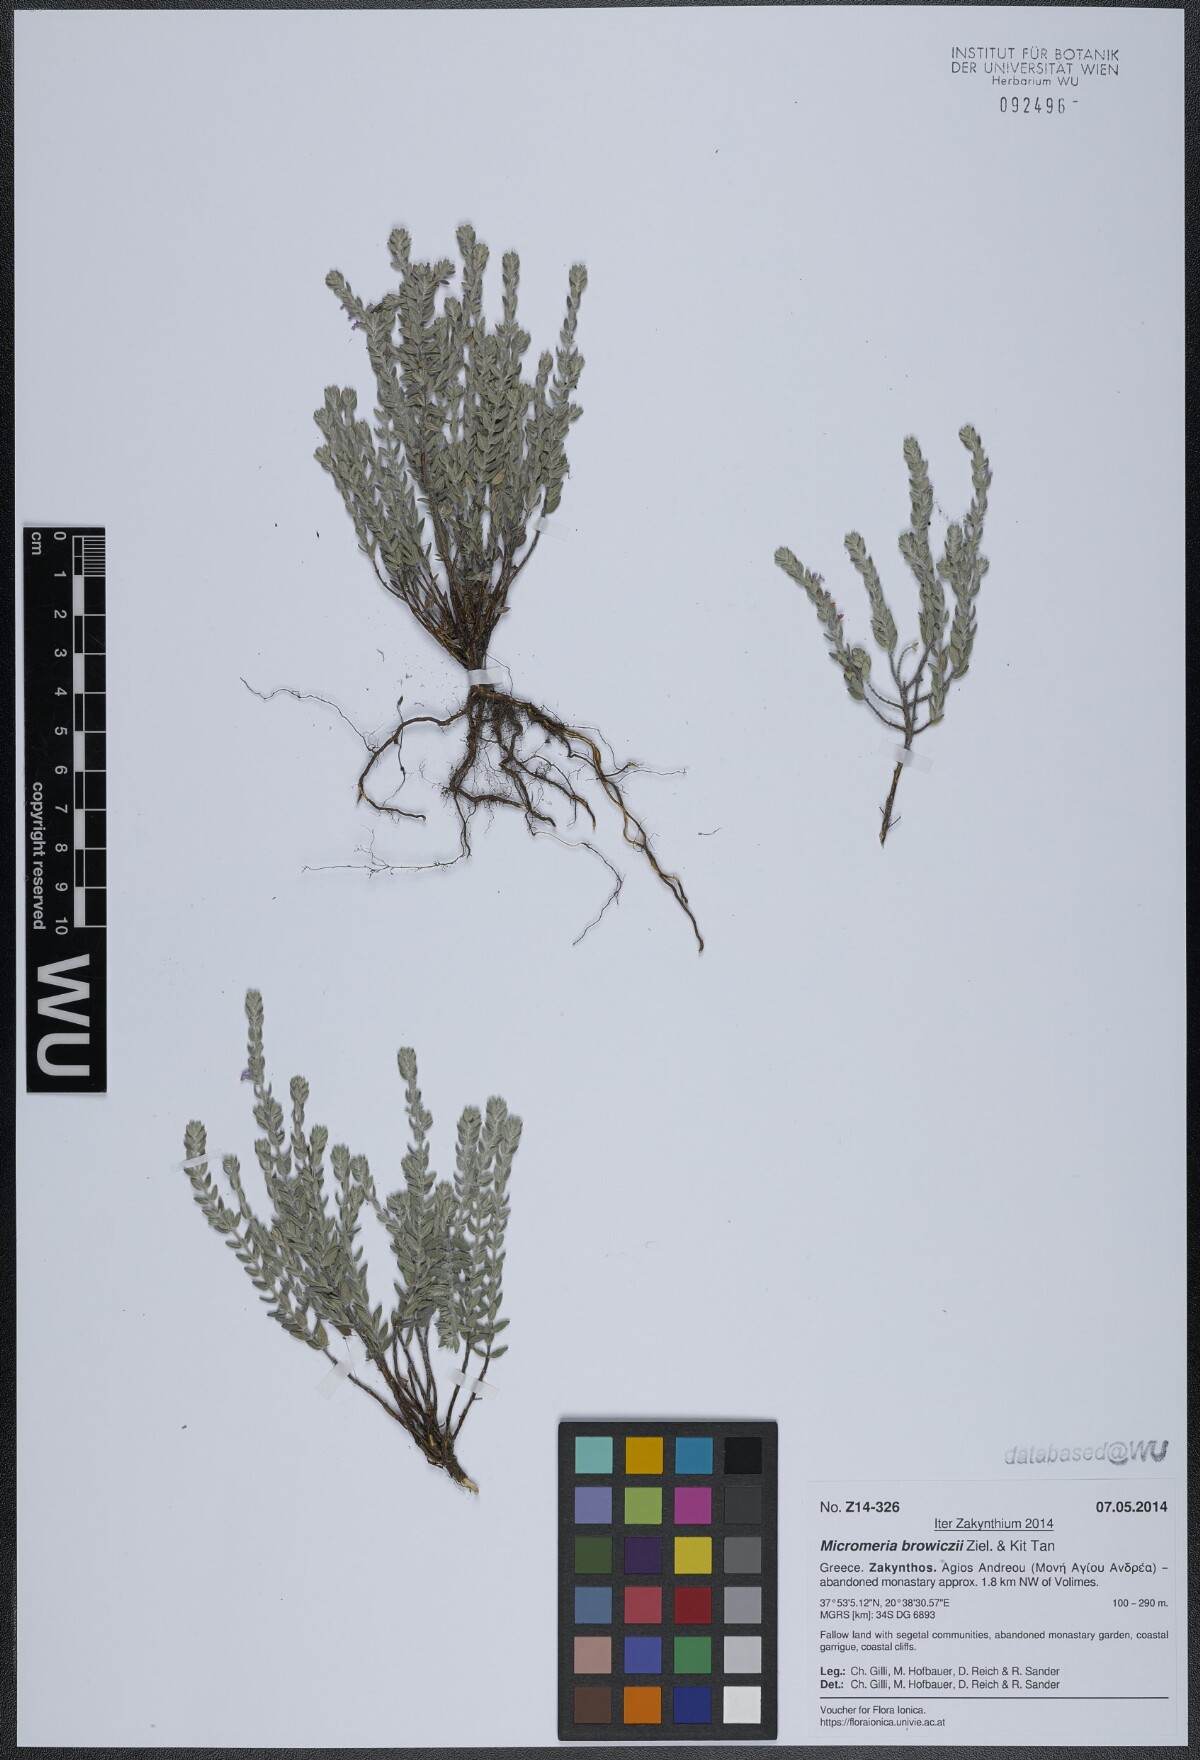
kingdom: Plantae
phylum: Tracheophyta
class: Magnoliopsida
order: Lamiales
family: Lamiaceae
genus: Micromeria
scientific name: Micromeria browiczii
